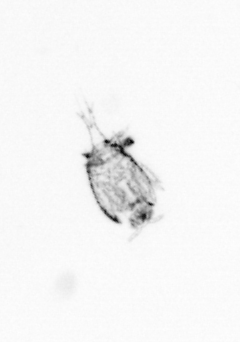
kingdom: Animalia
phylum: Arthropoda
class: Copepoda
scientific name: Copepoda
